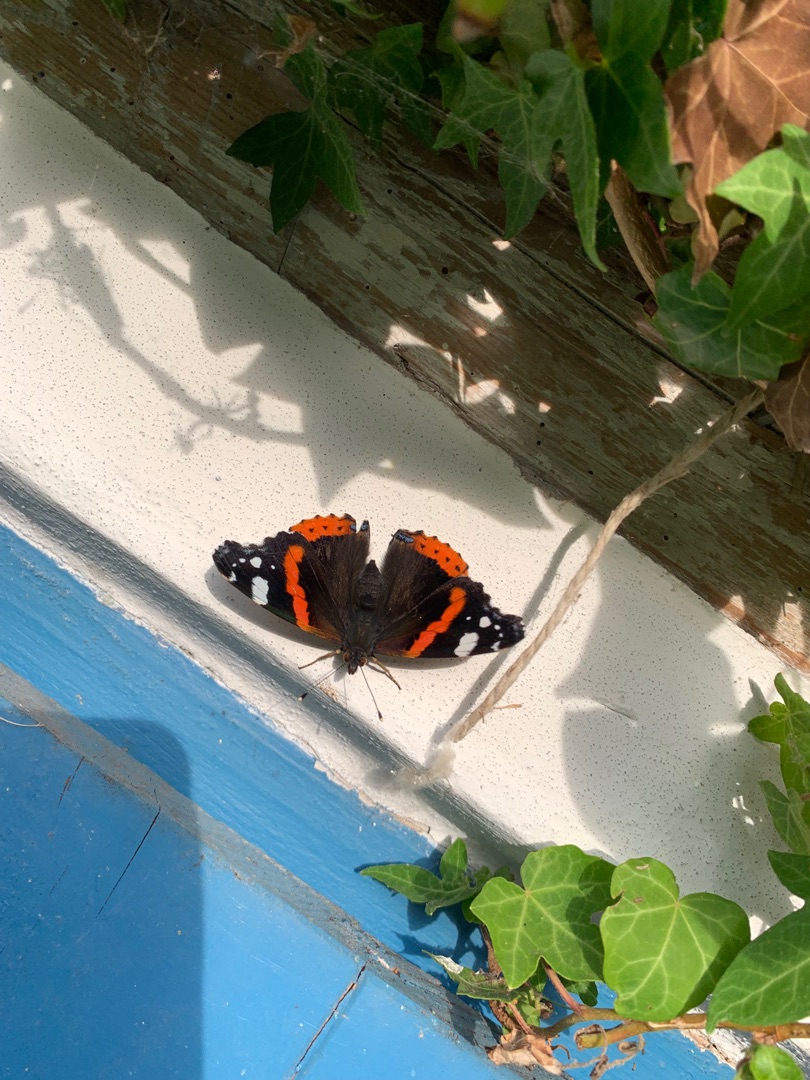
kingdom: Animalia
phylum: Arthropoda
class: Insecta
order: Lepidoptera
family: Nymphalidae
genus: Vanessa
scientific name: Vanessa atalanta
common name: Admiral
